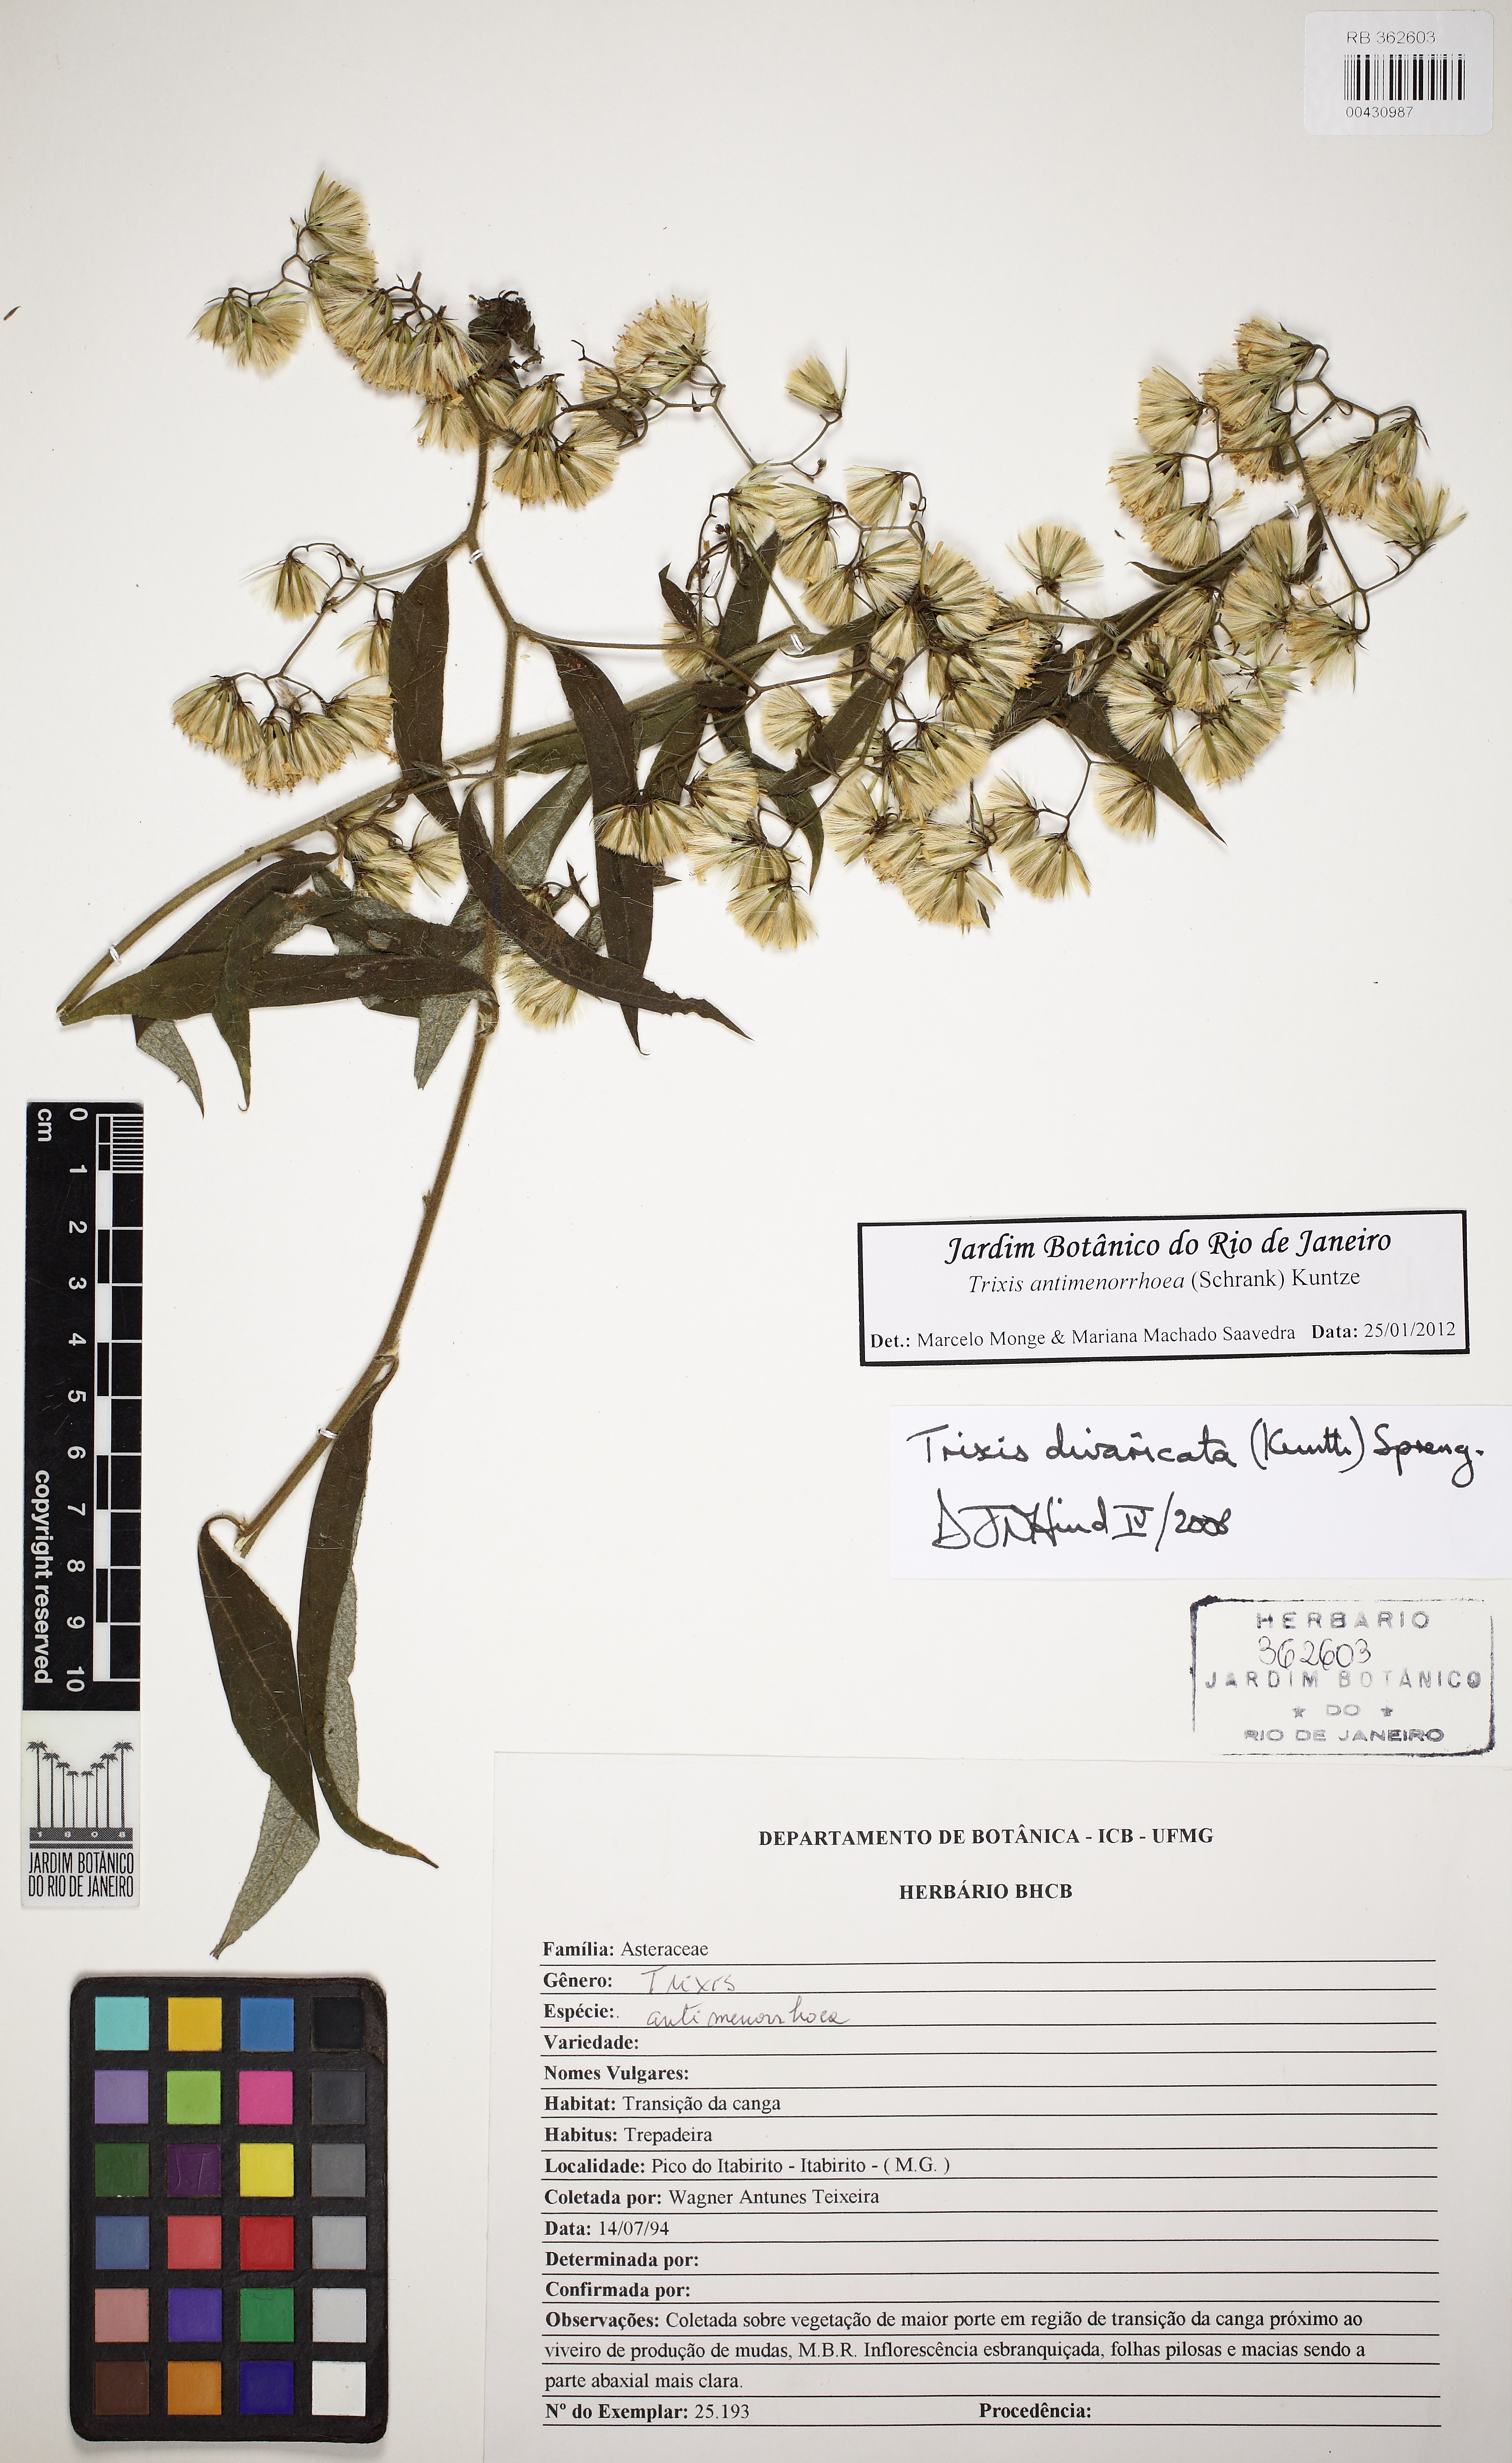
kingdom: Plantae
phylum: Tracheophyta
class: Magnoliopsida
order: Asterales
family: Asteraceae
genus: Trixis
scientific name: Trixis divaricata
